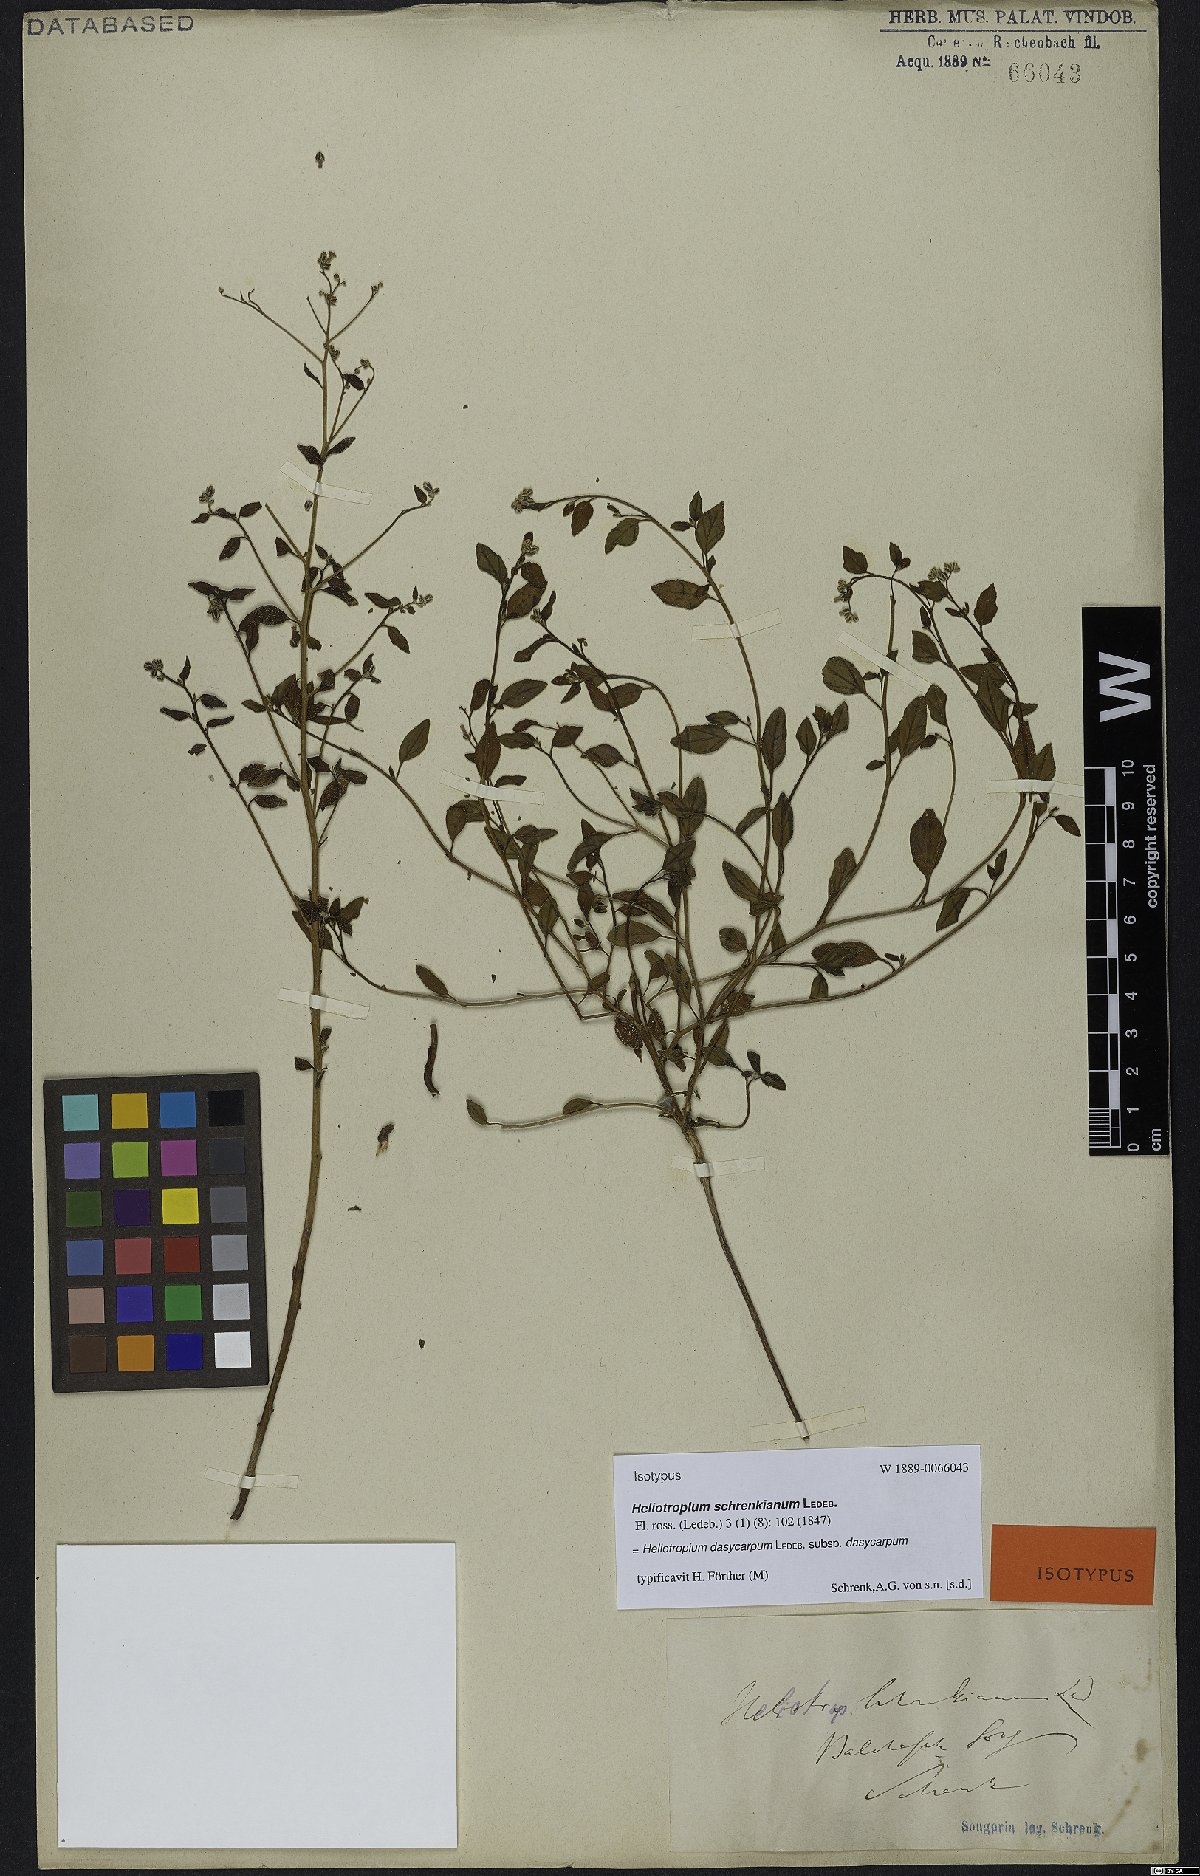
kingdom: Plantae
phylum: Tracheophyta
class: Magnoliopsida
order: Boraginales
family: Heliotropiaceae
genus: Heliotropium
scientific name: Heliotropium dasycarpum
